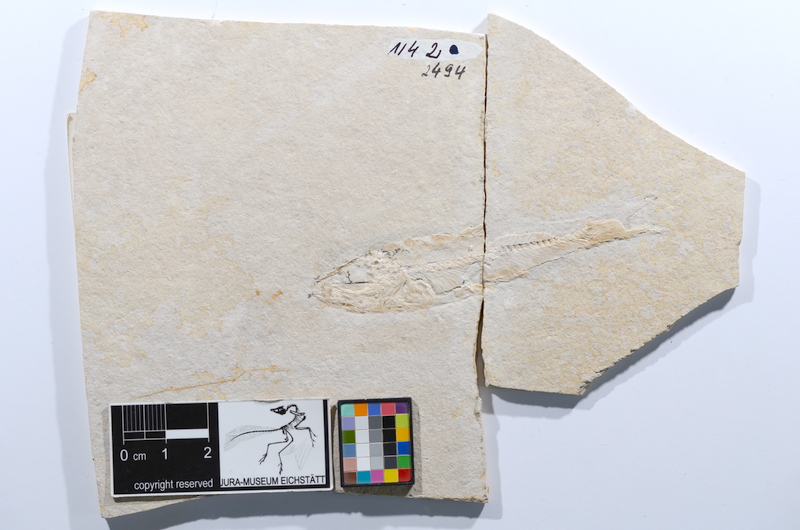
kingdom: Animalia
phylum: Chordata
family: Ascalaboidae
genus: Ascalabos
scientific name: Ascalabos voithii
